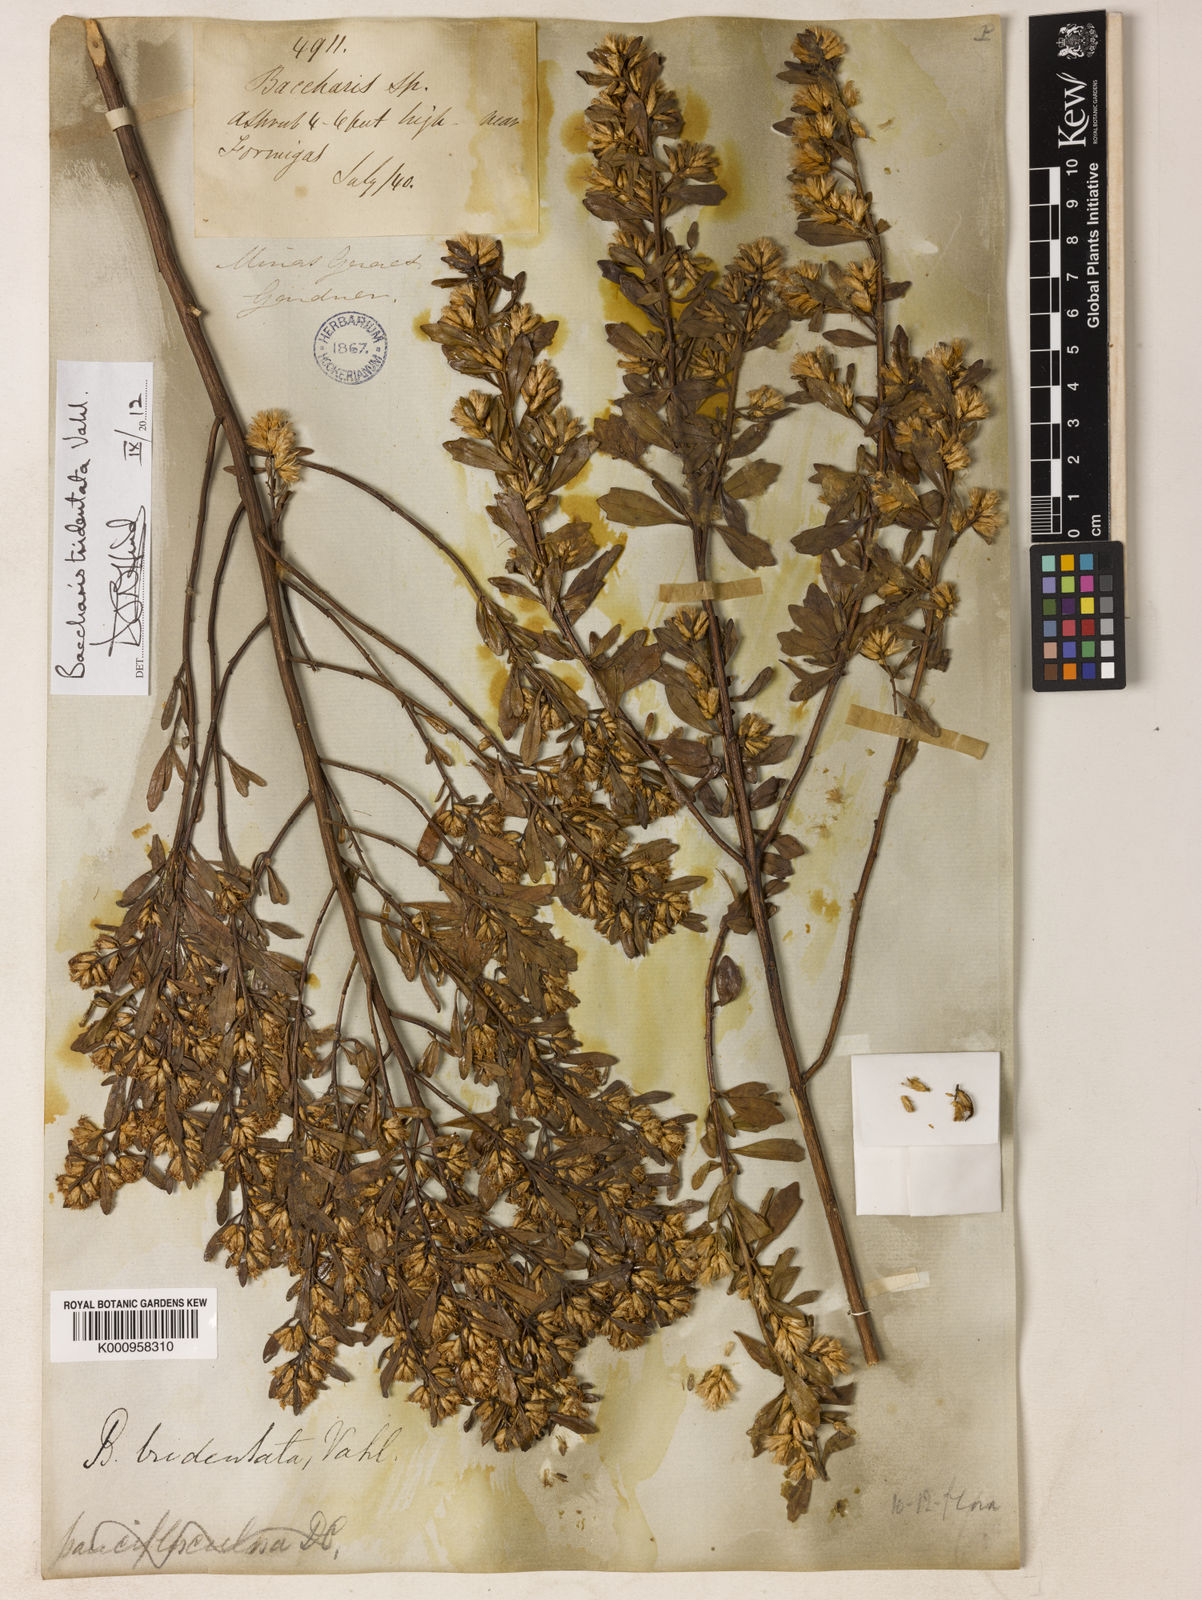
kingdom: Plantae
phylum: Tracheophyta
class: Magnoliopsida
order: Asterales
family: Asteraceae
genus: Baccharis
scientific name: Baccharis tridentata
